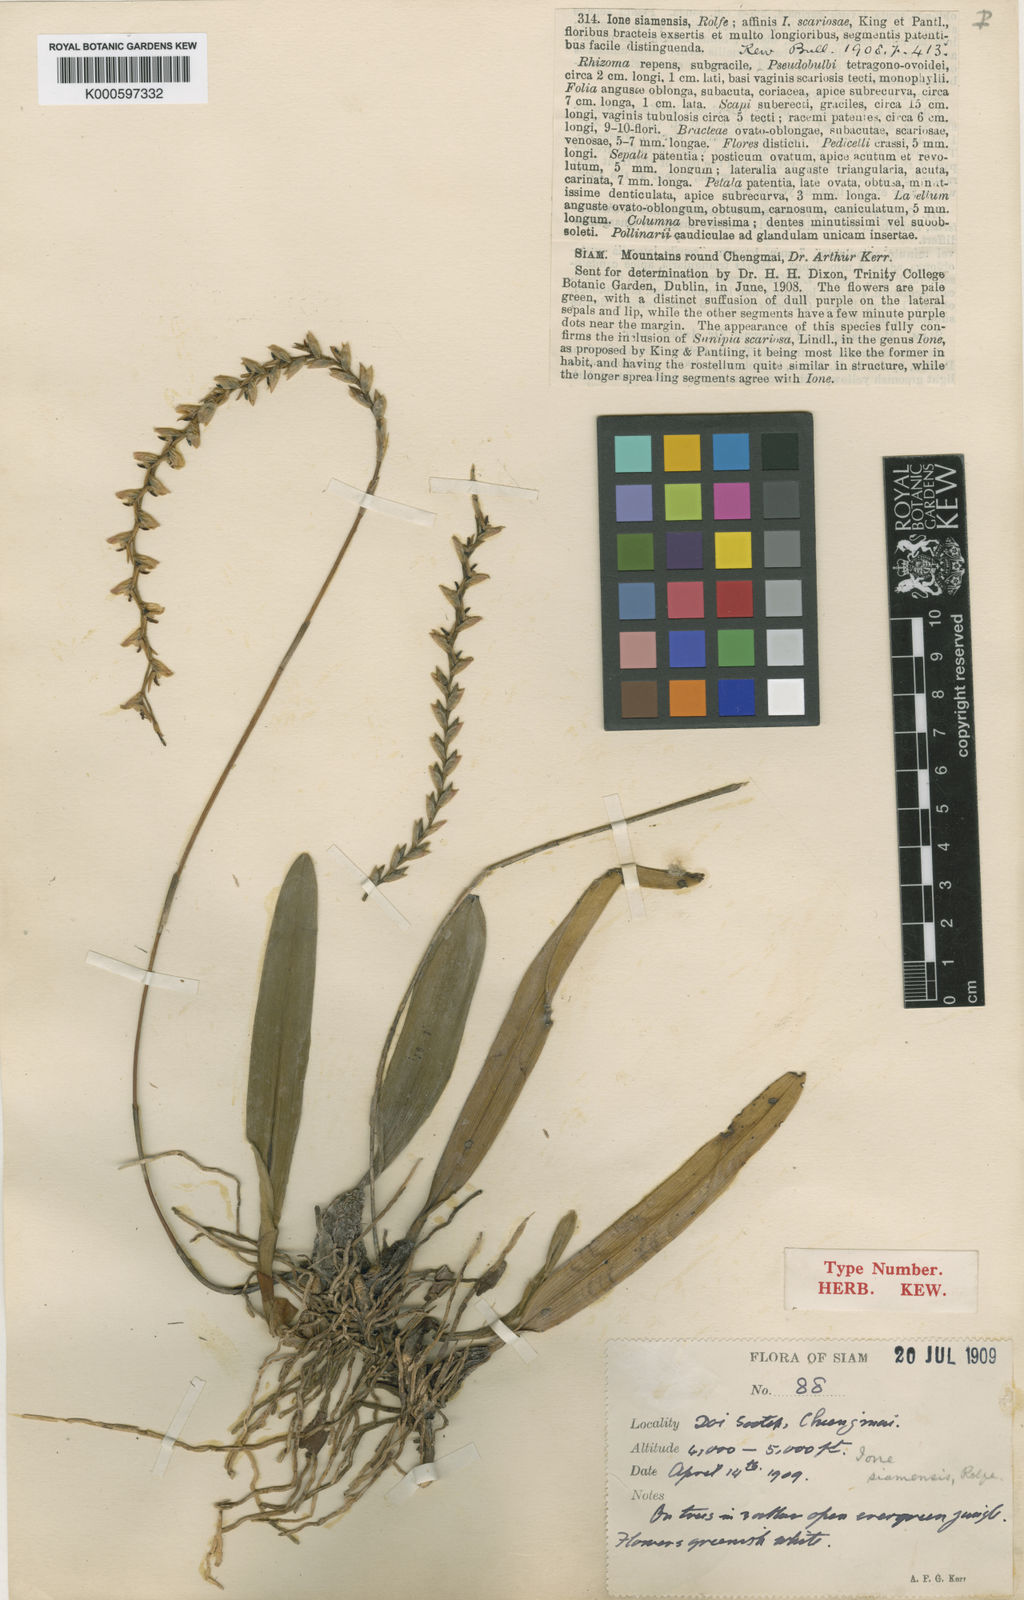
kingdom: Plantae
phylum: Tracheophyta
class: Liliopsida
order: Asparagales
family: Orchidaceae
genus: Bulbophyllum
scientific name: Bulbophyllum reptans
